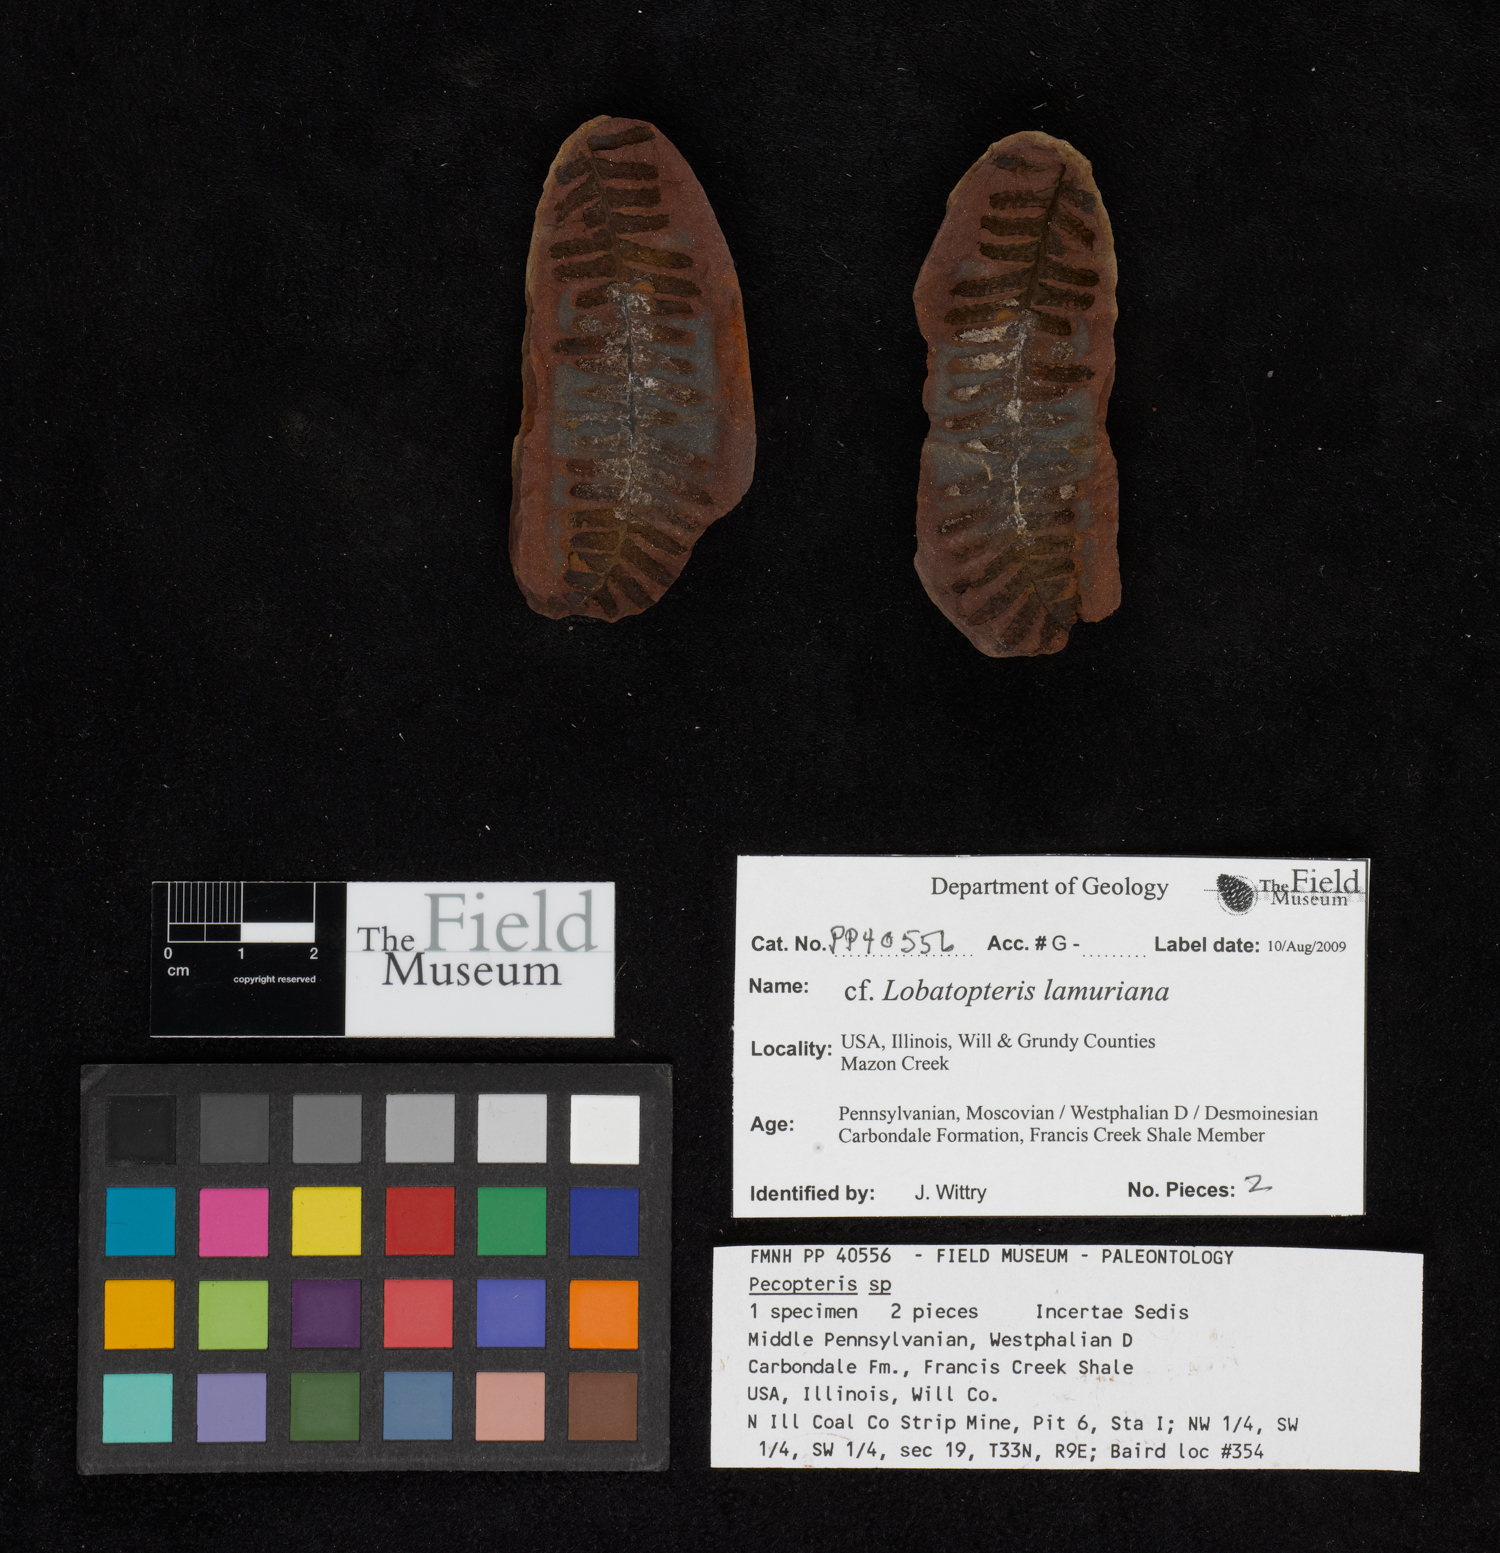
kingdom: Plantae
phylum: Tracheophyta
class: Polypodiopsida
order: Marattiales
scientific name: Marattiales
